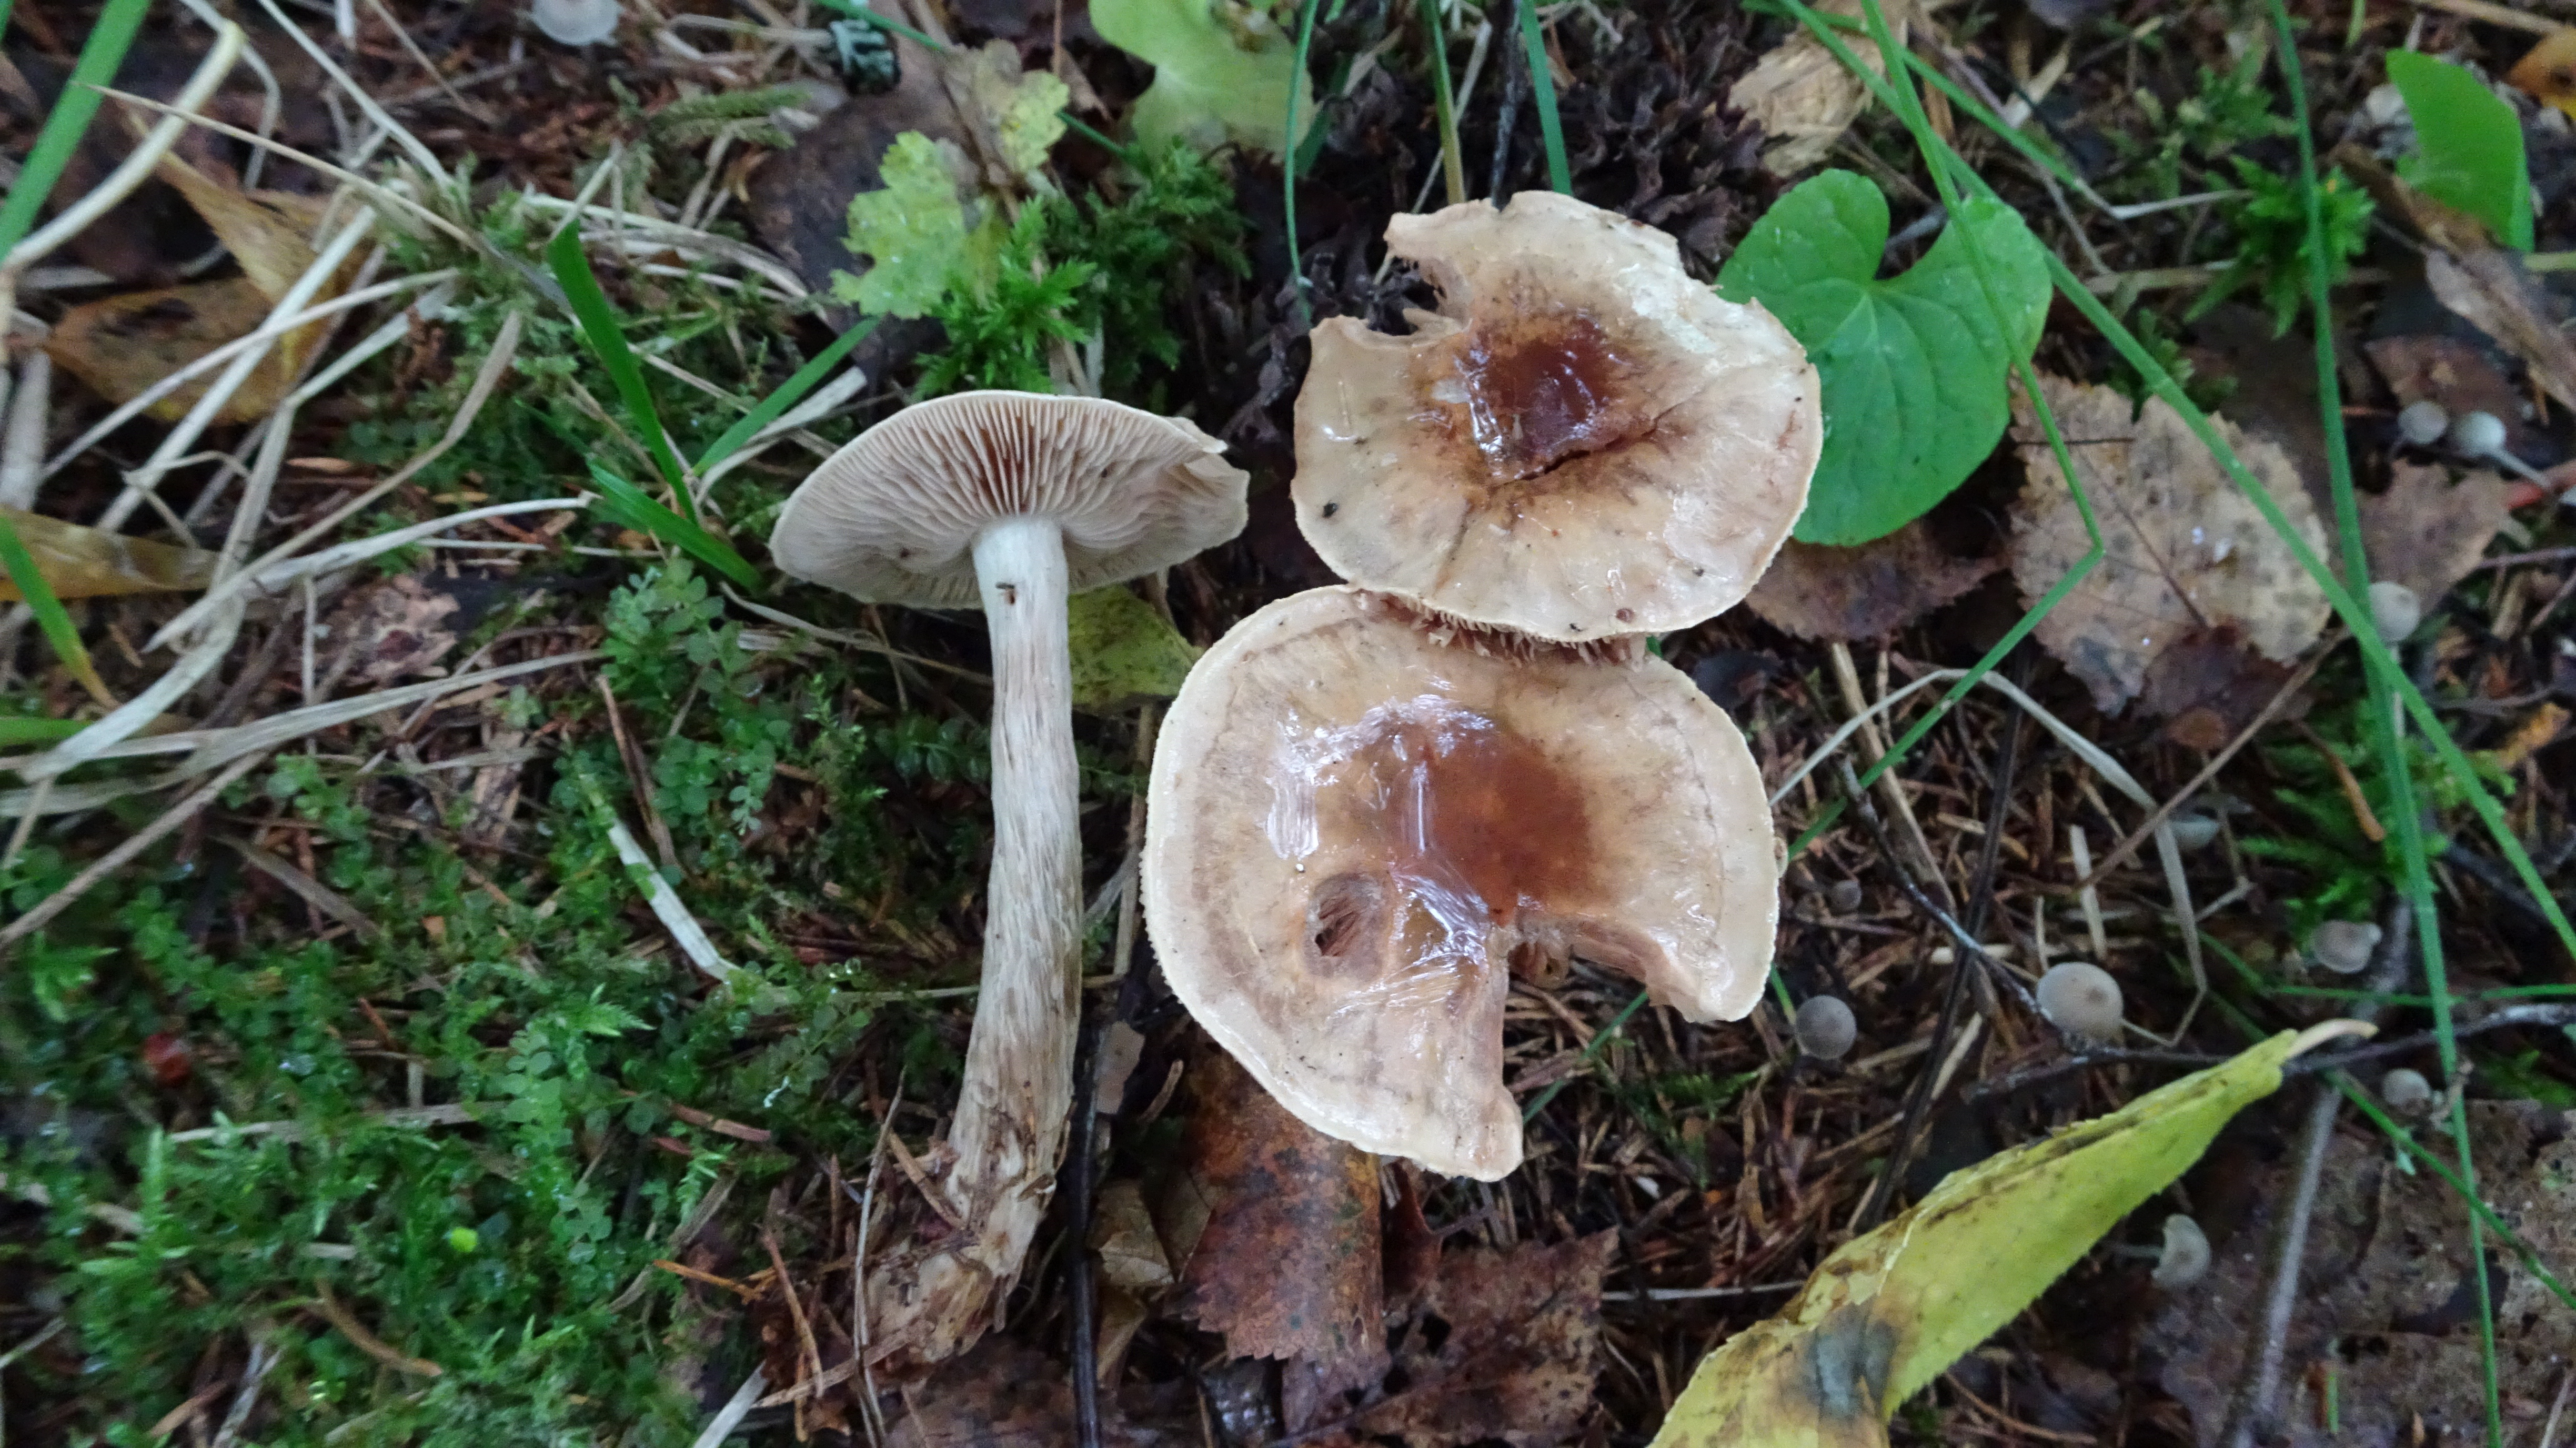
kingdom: Fungi
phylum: Basidiomycota
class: Agaricomycetes
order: Agaricales
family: Hymenogastraceae
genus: Hebeloma
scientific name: Hebeloma mesophaeum
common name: Veiled poisonpie
